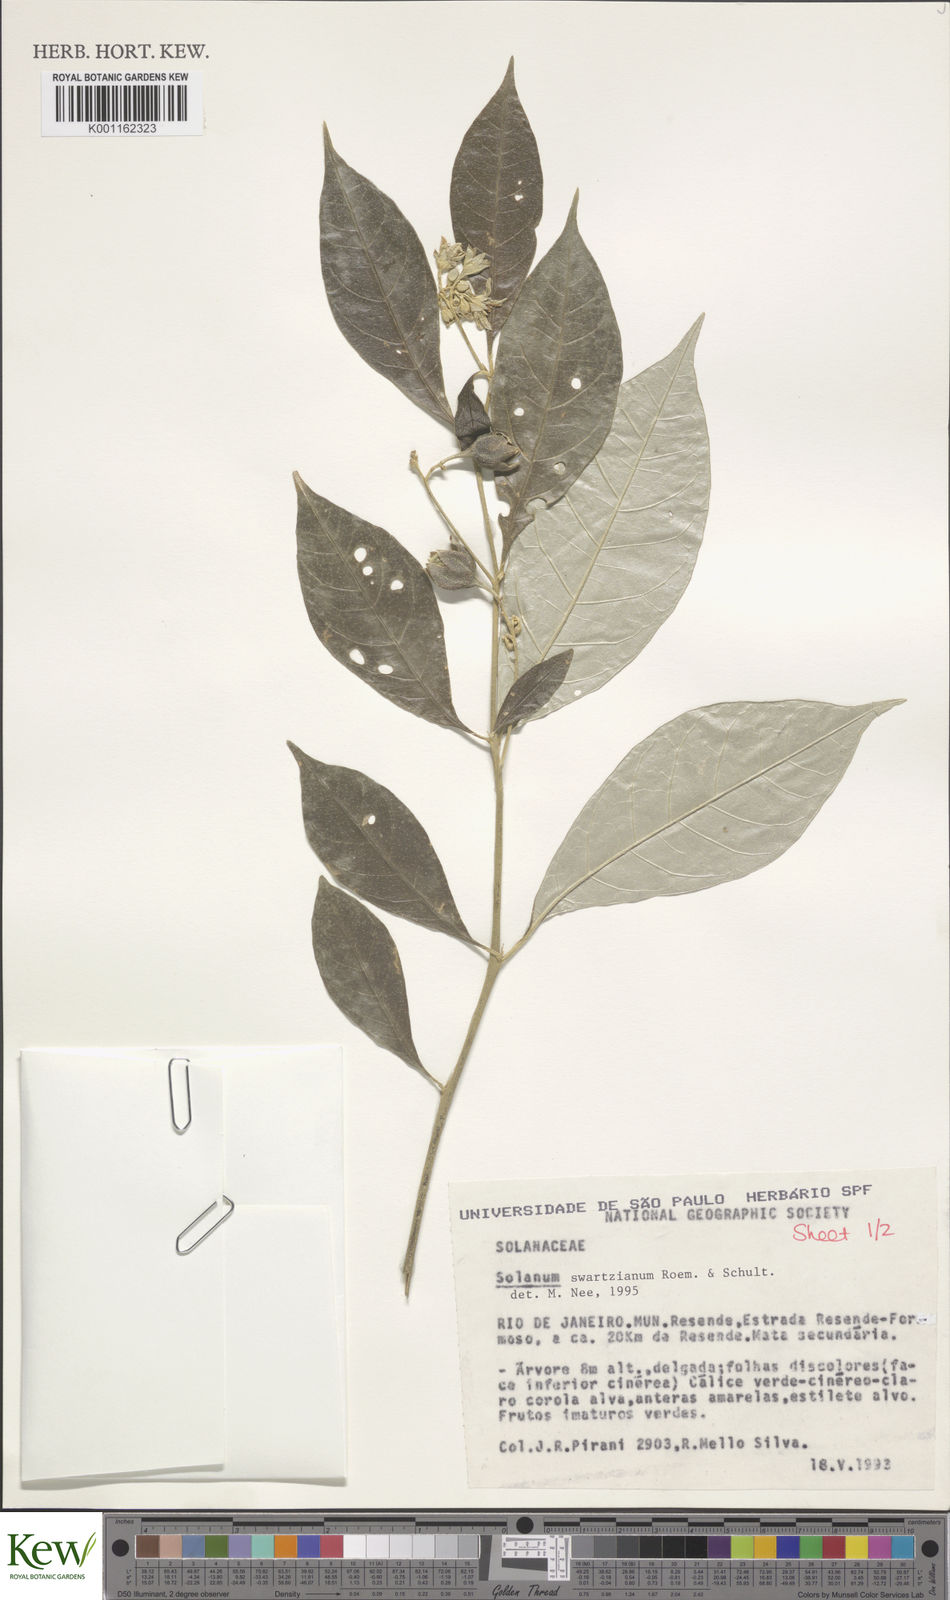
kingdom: Plantae
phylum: Tracheophyta
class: Magnoliopsida
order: Solanales
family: Solanaceae
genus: Solanum
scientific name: Solanum swartzianum
